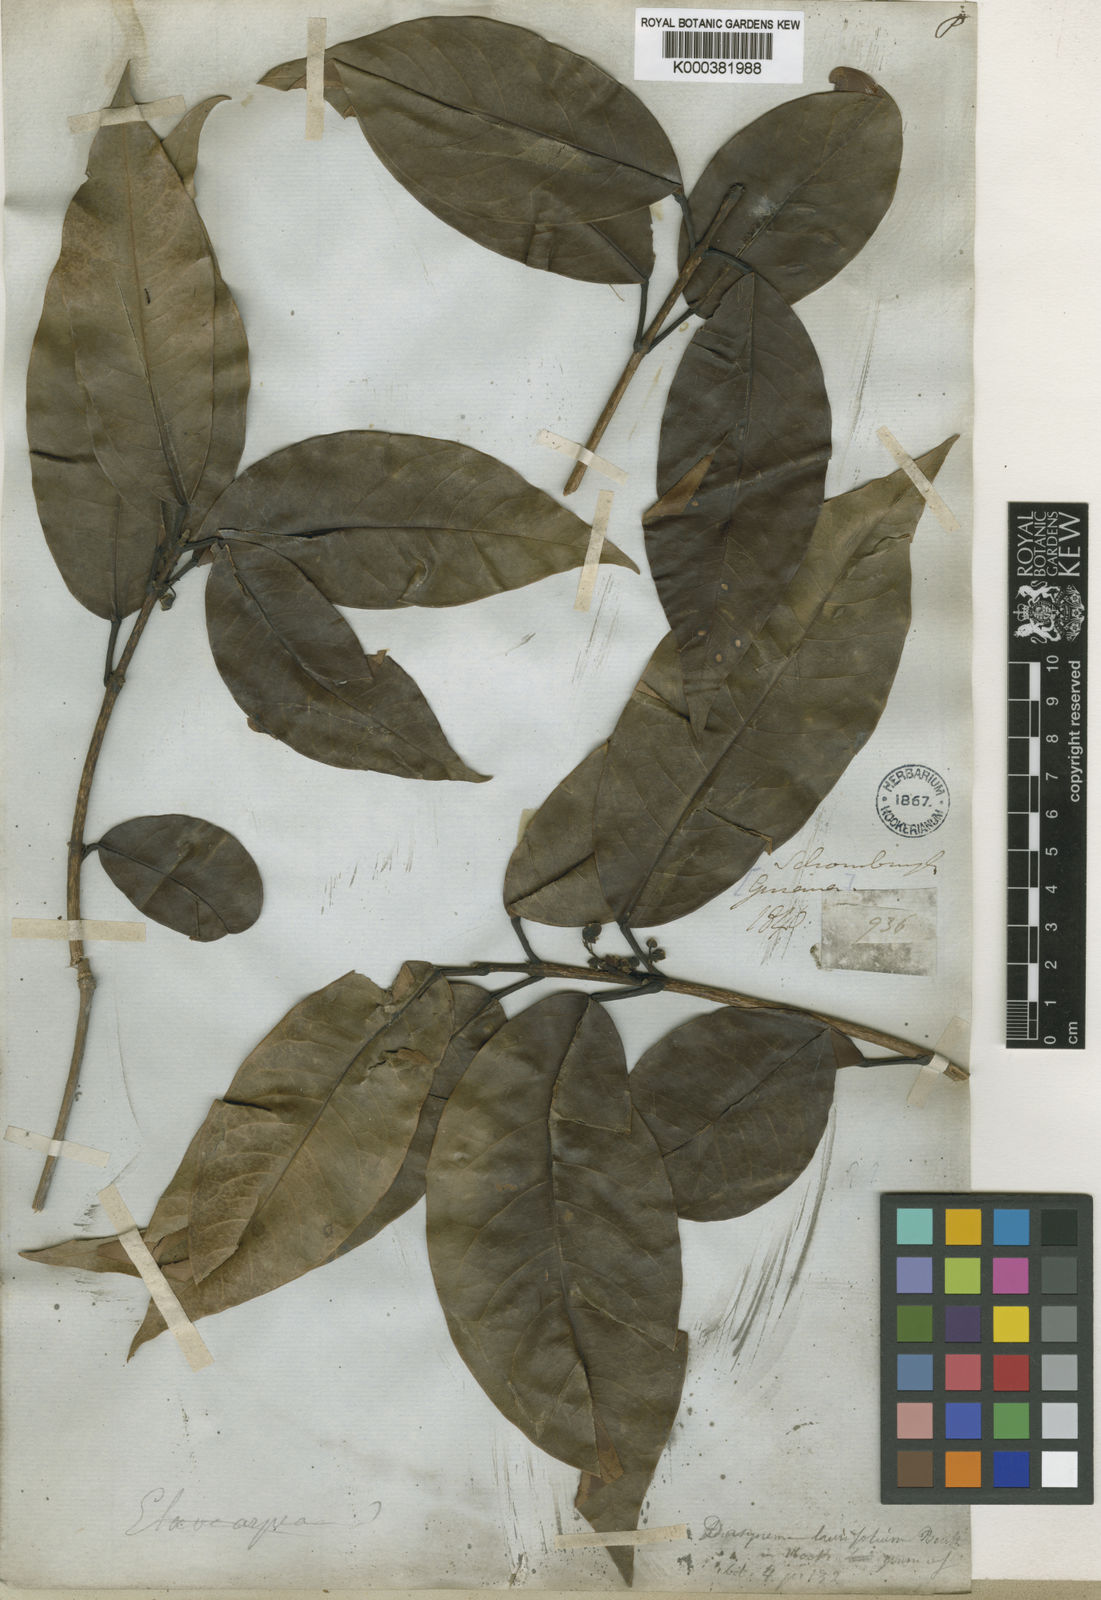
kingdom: Plantae
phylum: Tracheophyta
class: Magnoliopsida
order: Oxalidales
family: Elaeocarpaceae
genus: Sloanea
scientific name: Sloanea laurifolia
